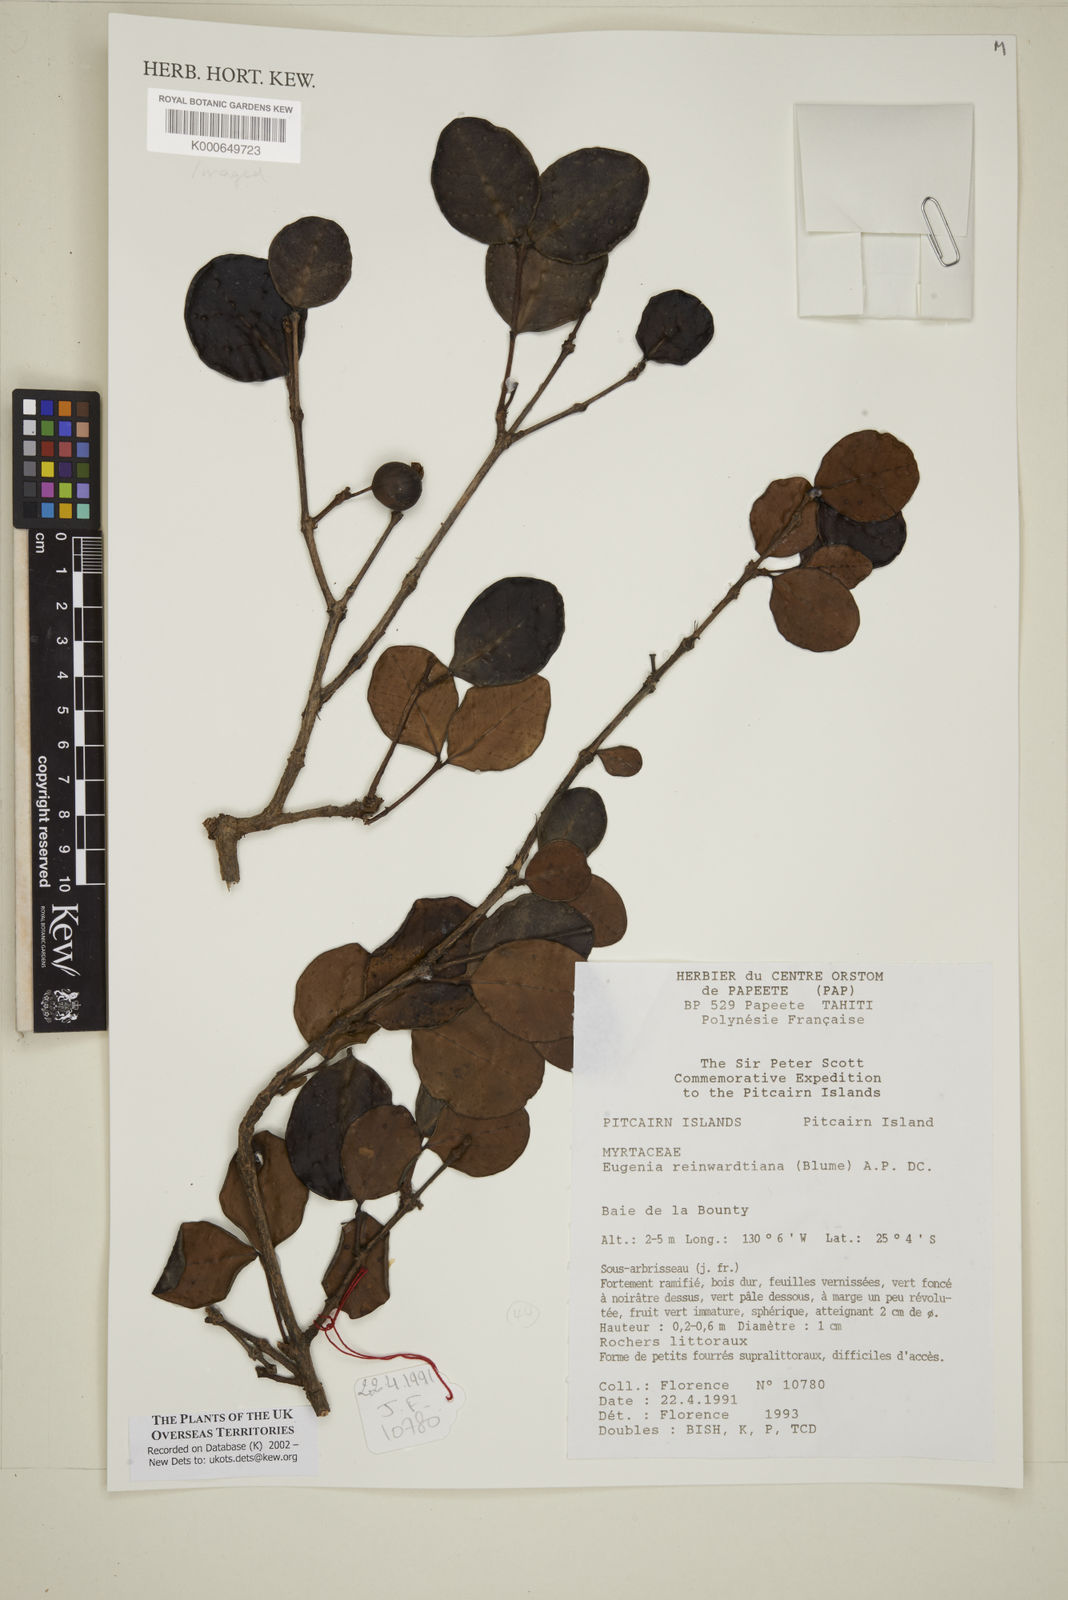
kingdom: Plantae
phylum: Tracheophyta
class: Magnoliopsida
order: Myrtales
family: Myrtaceae
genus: Eugenia
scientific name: Eugenia uniflora
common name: Surinam cherry
